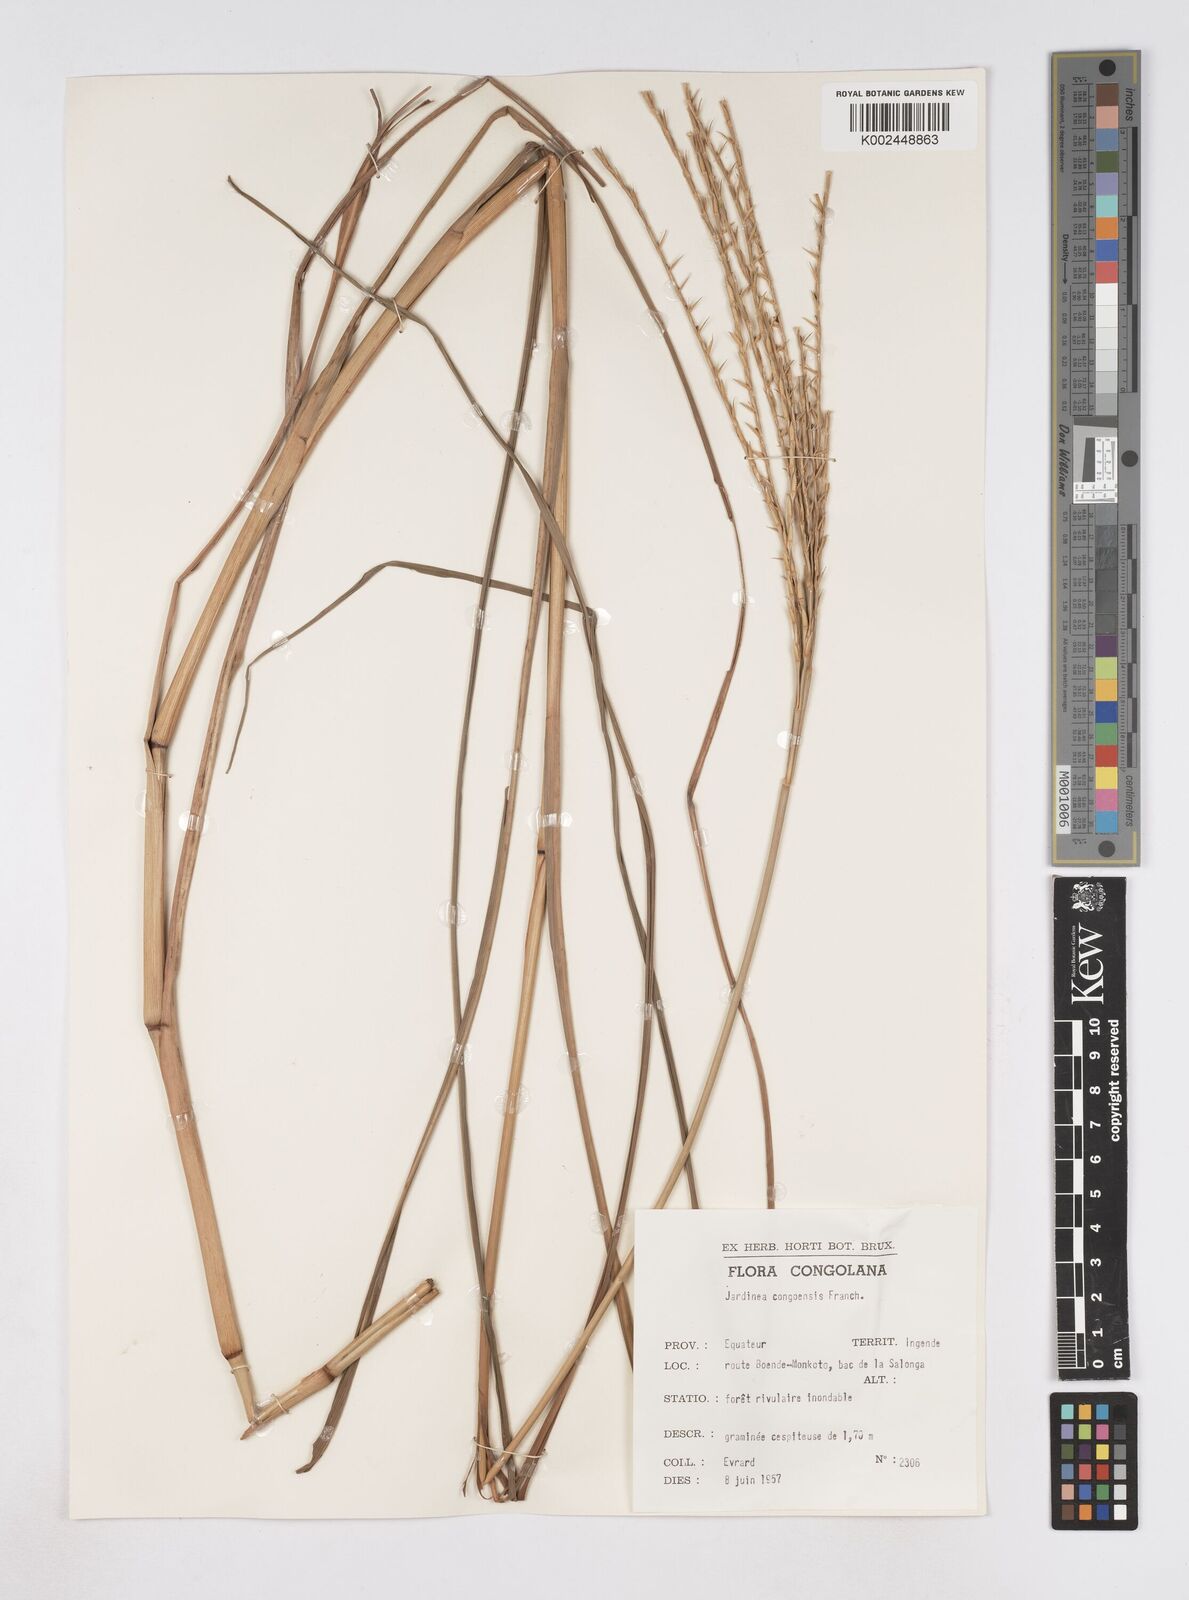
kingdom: Plantae
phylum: Tracheophyta
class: Liliopsida
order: Poales
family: Poaceae
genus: Phacelurus
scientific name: Phacelurus gabonensis
